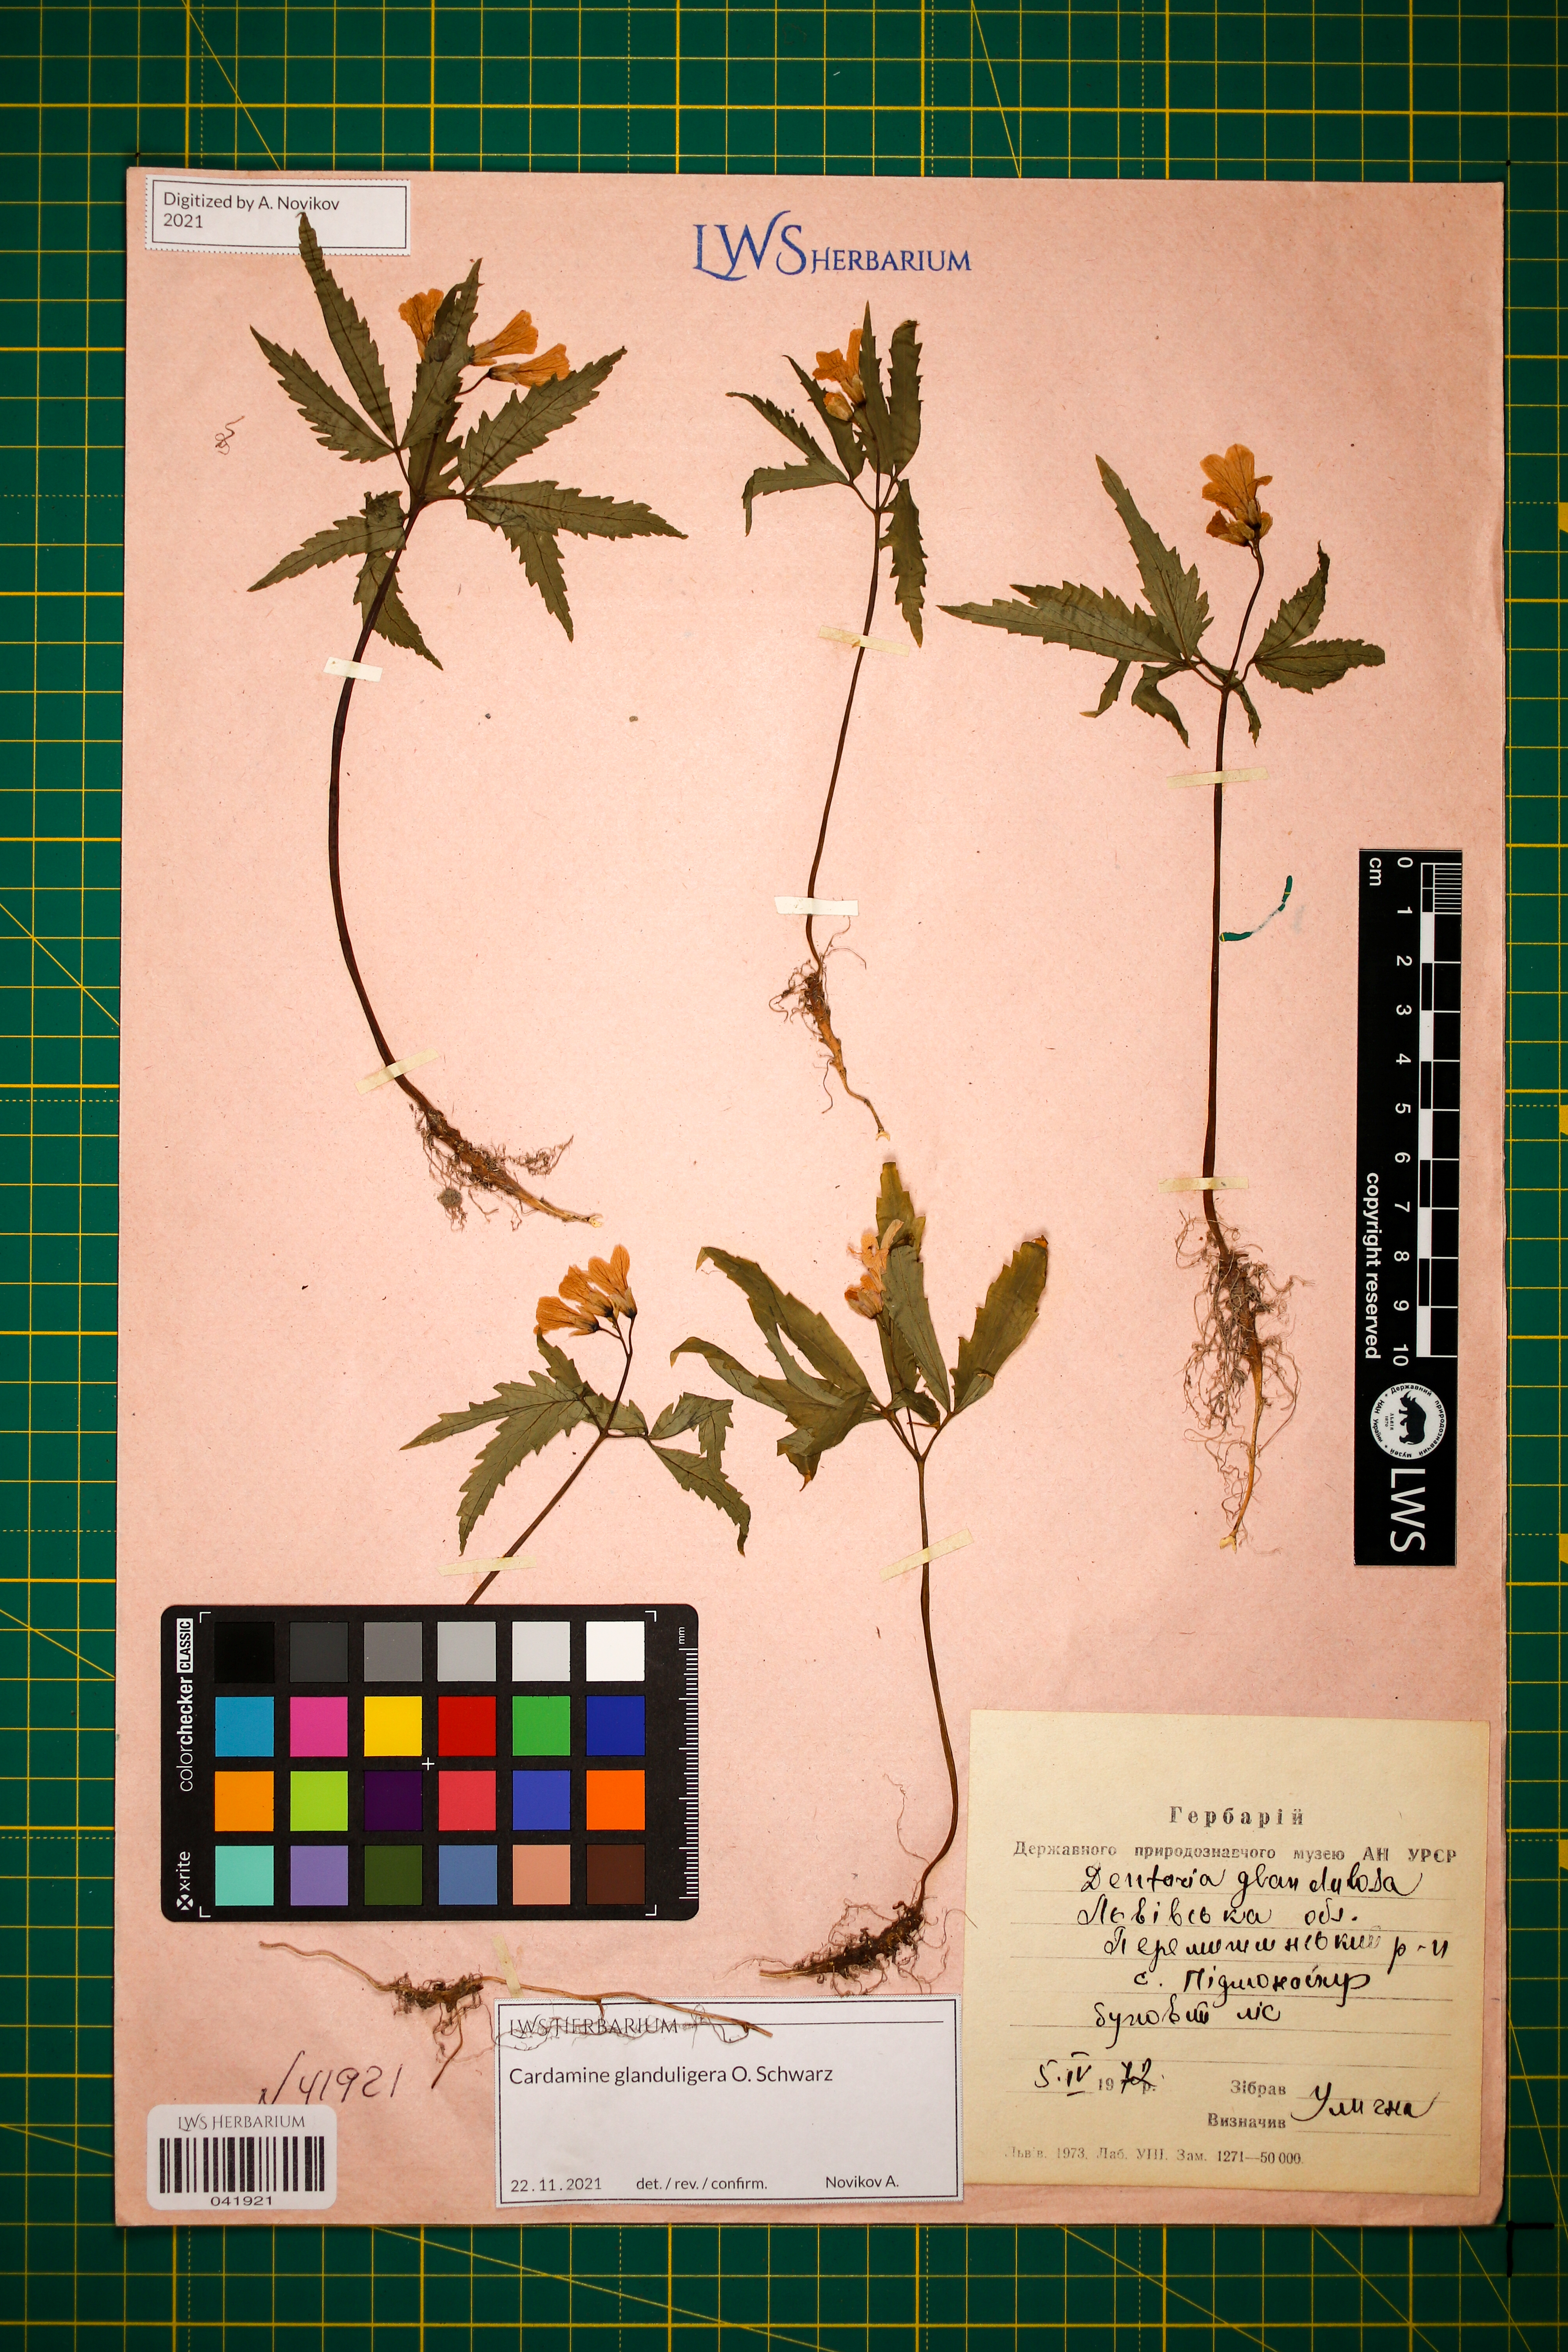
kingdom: Plantae
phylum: Tracheophyta
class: Magnoliopsida
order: Brassicales
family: Brassicaceae
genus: Cardamine
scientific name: Cardamine glanduligera
